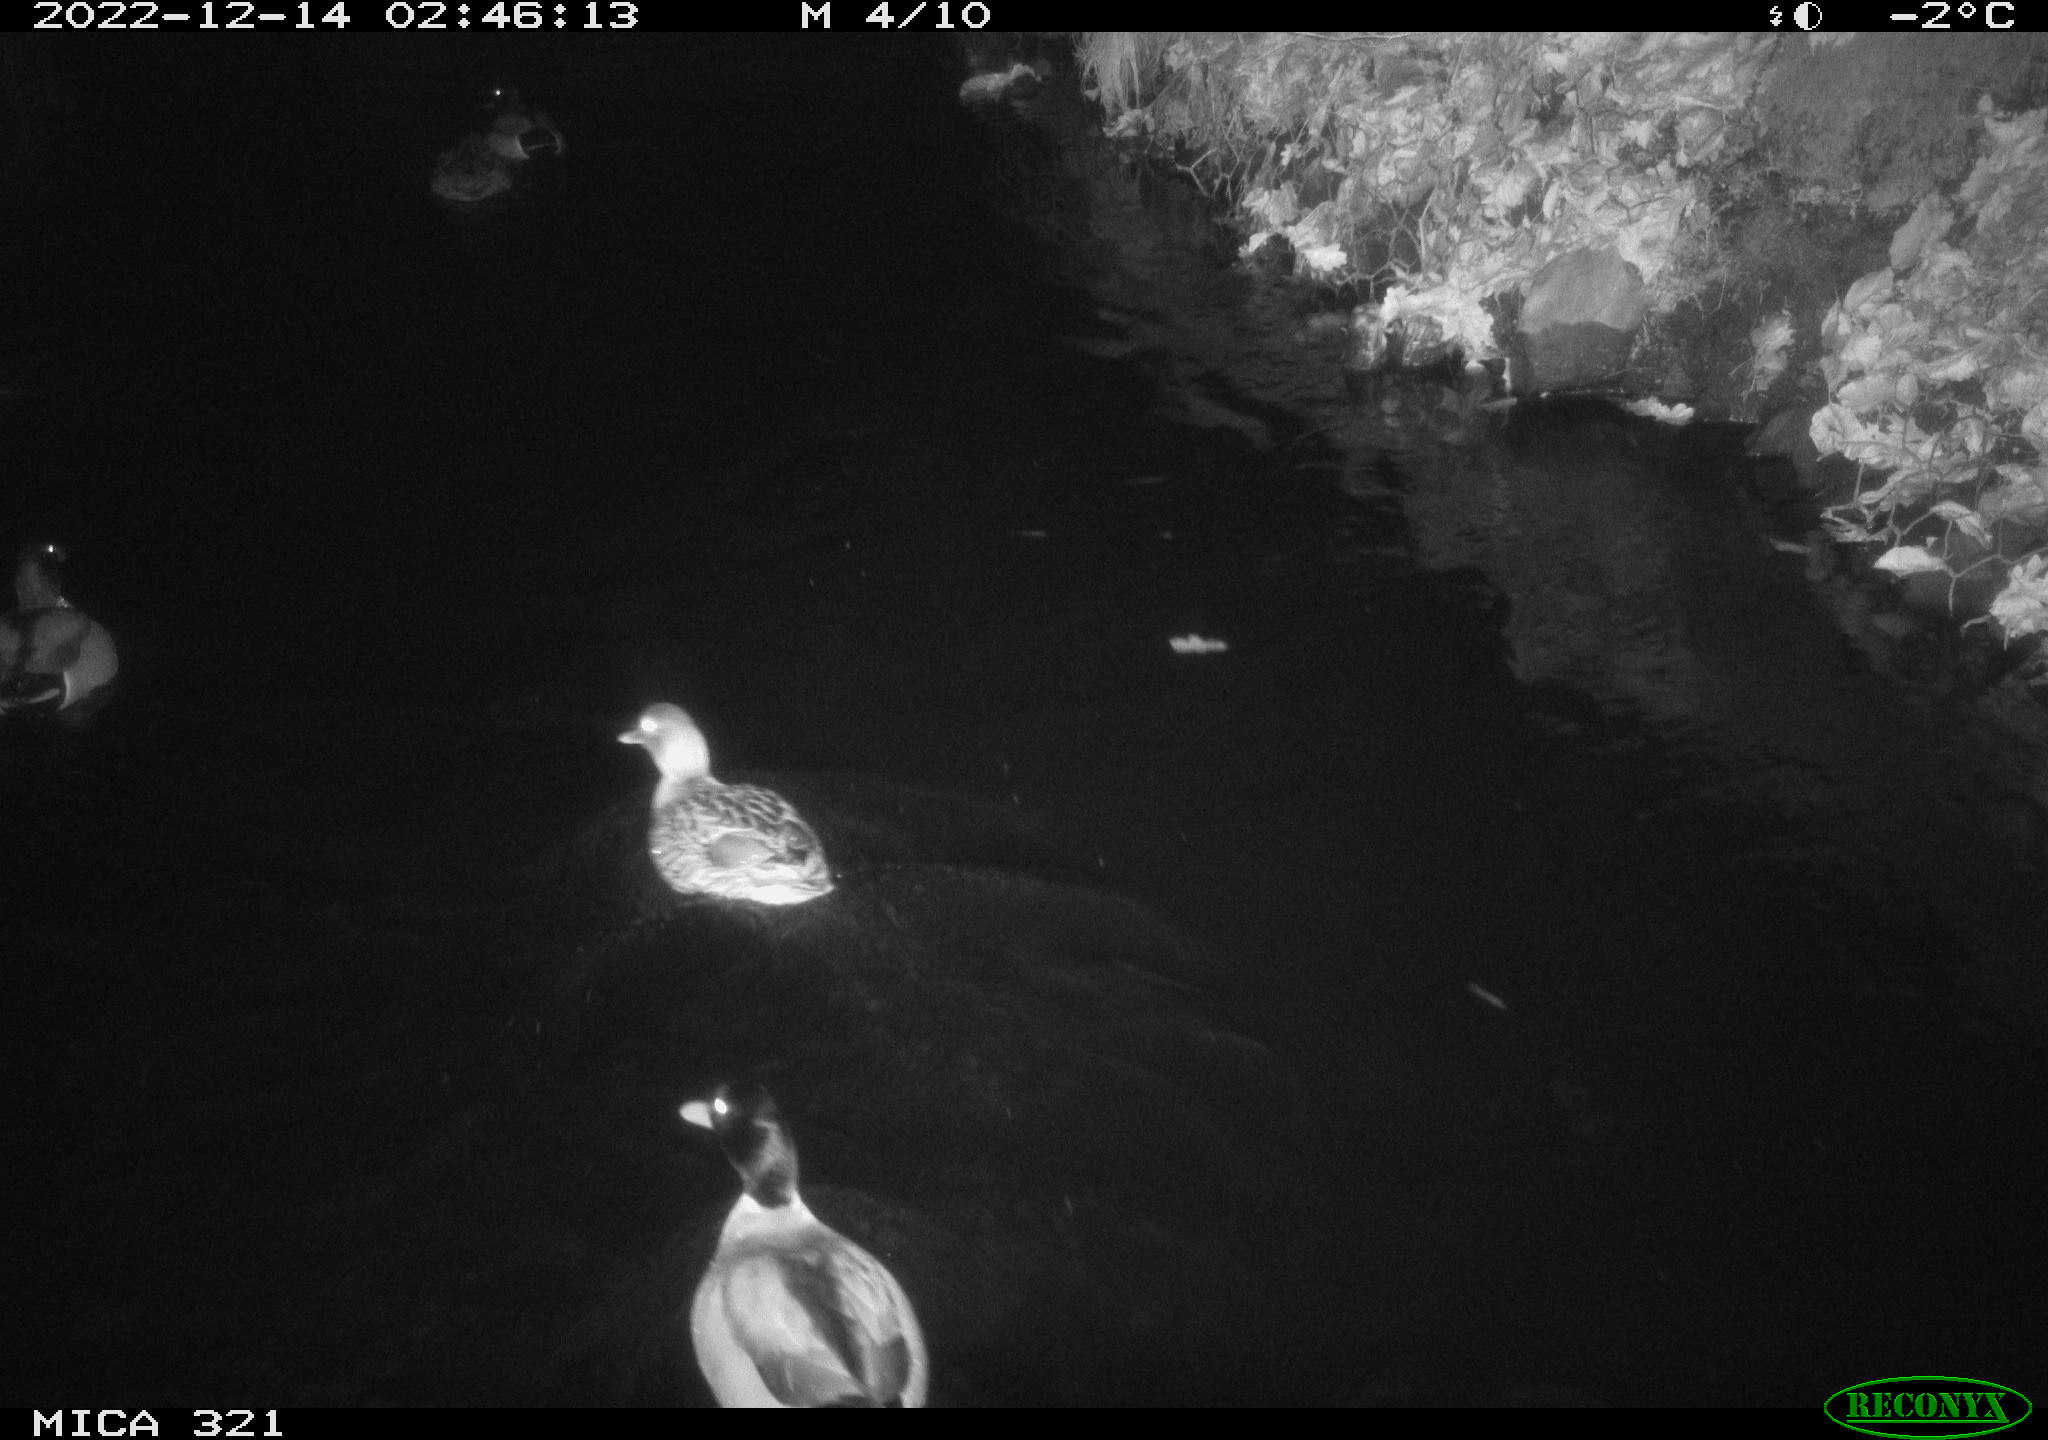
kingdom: Animalia
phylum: Chordata
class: Aves
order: Anseriformes
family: Anatidae
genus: Anas
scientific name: Anas
